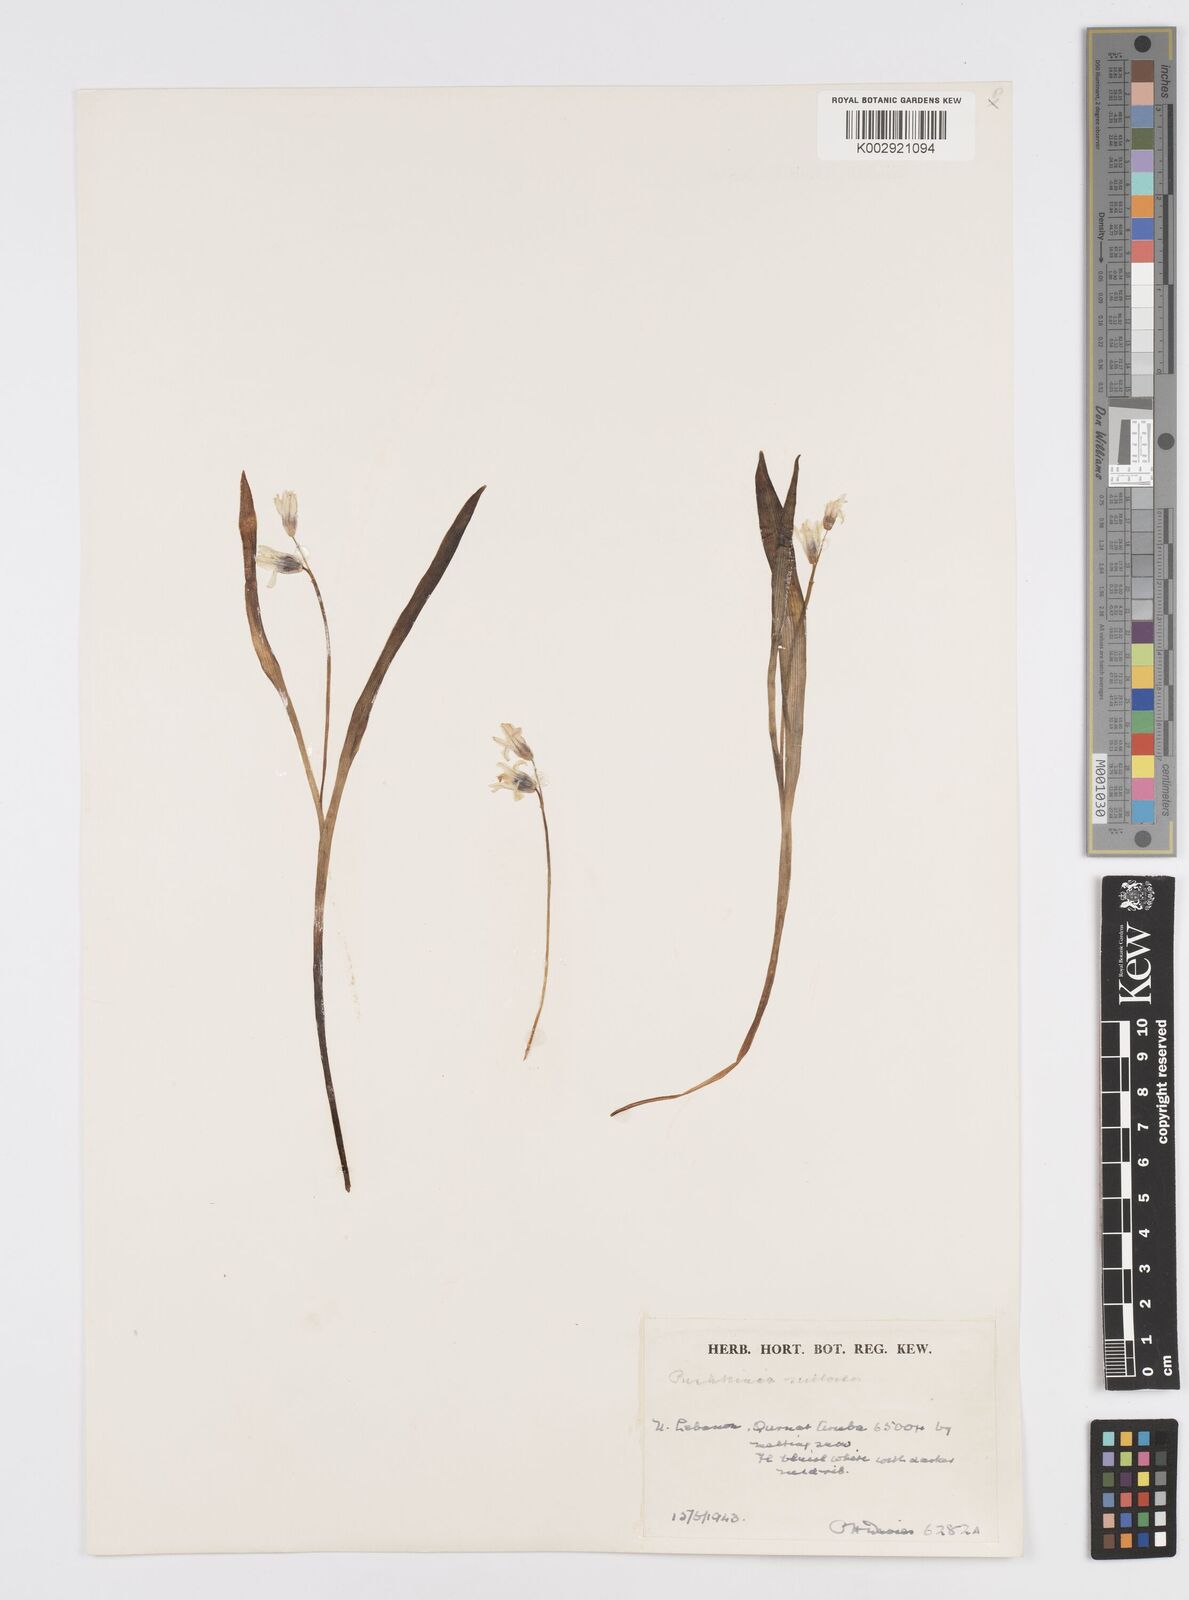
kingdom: Plantae
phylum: Tracheophyta
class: Liliopsida
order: Asparagales
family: Asparagaceae
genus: Puschkinia
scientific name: Puschkinia scilloides
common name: Striped squill
